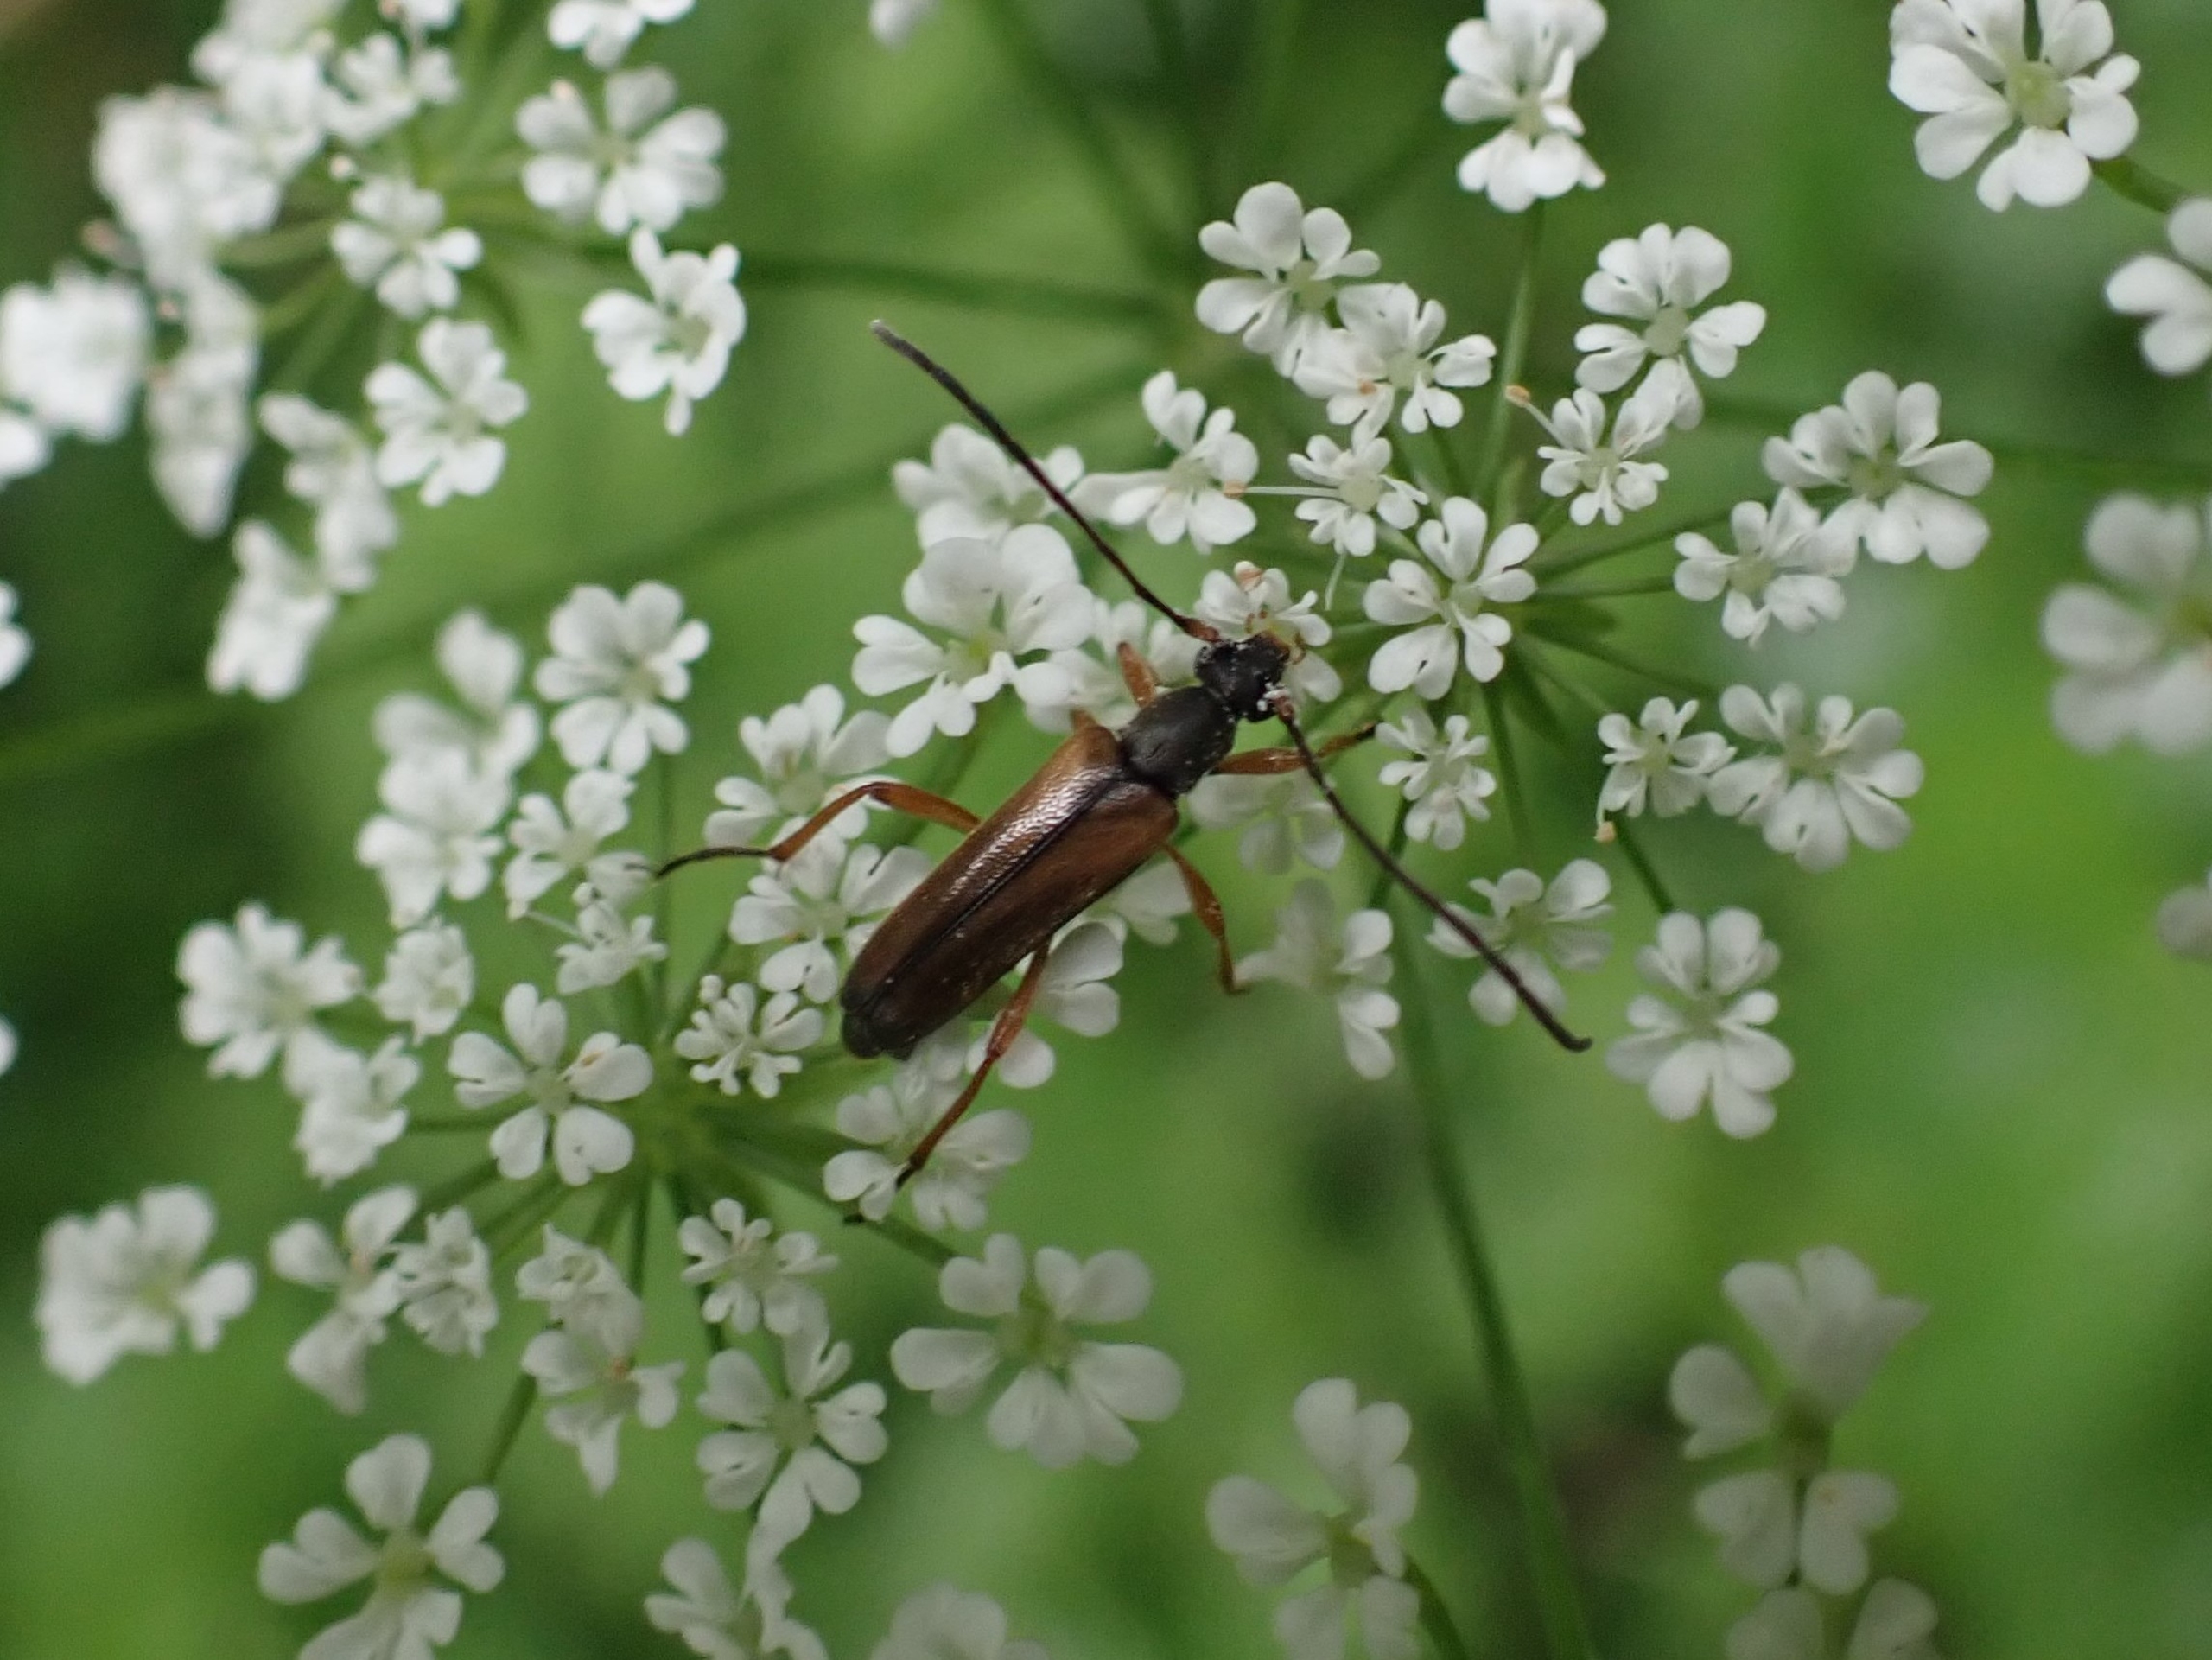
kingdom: Animalia
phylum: Arthropoda
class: Insecta
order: Coleoptera
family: Cerambycidae
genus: Alosterna
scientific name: Alosterna tabacicolor
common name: Tobaksfarvet blomsterbuk
